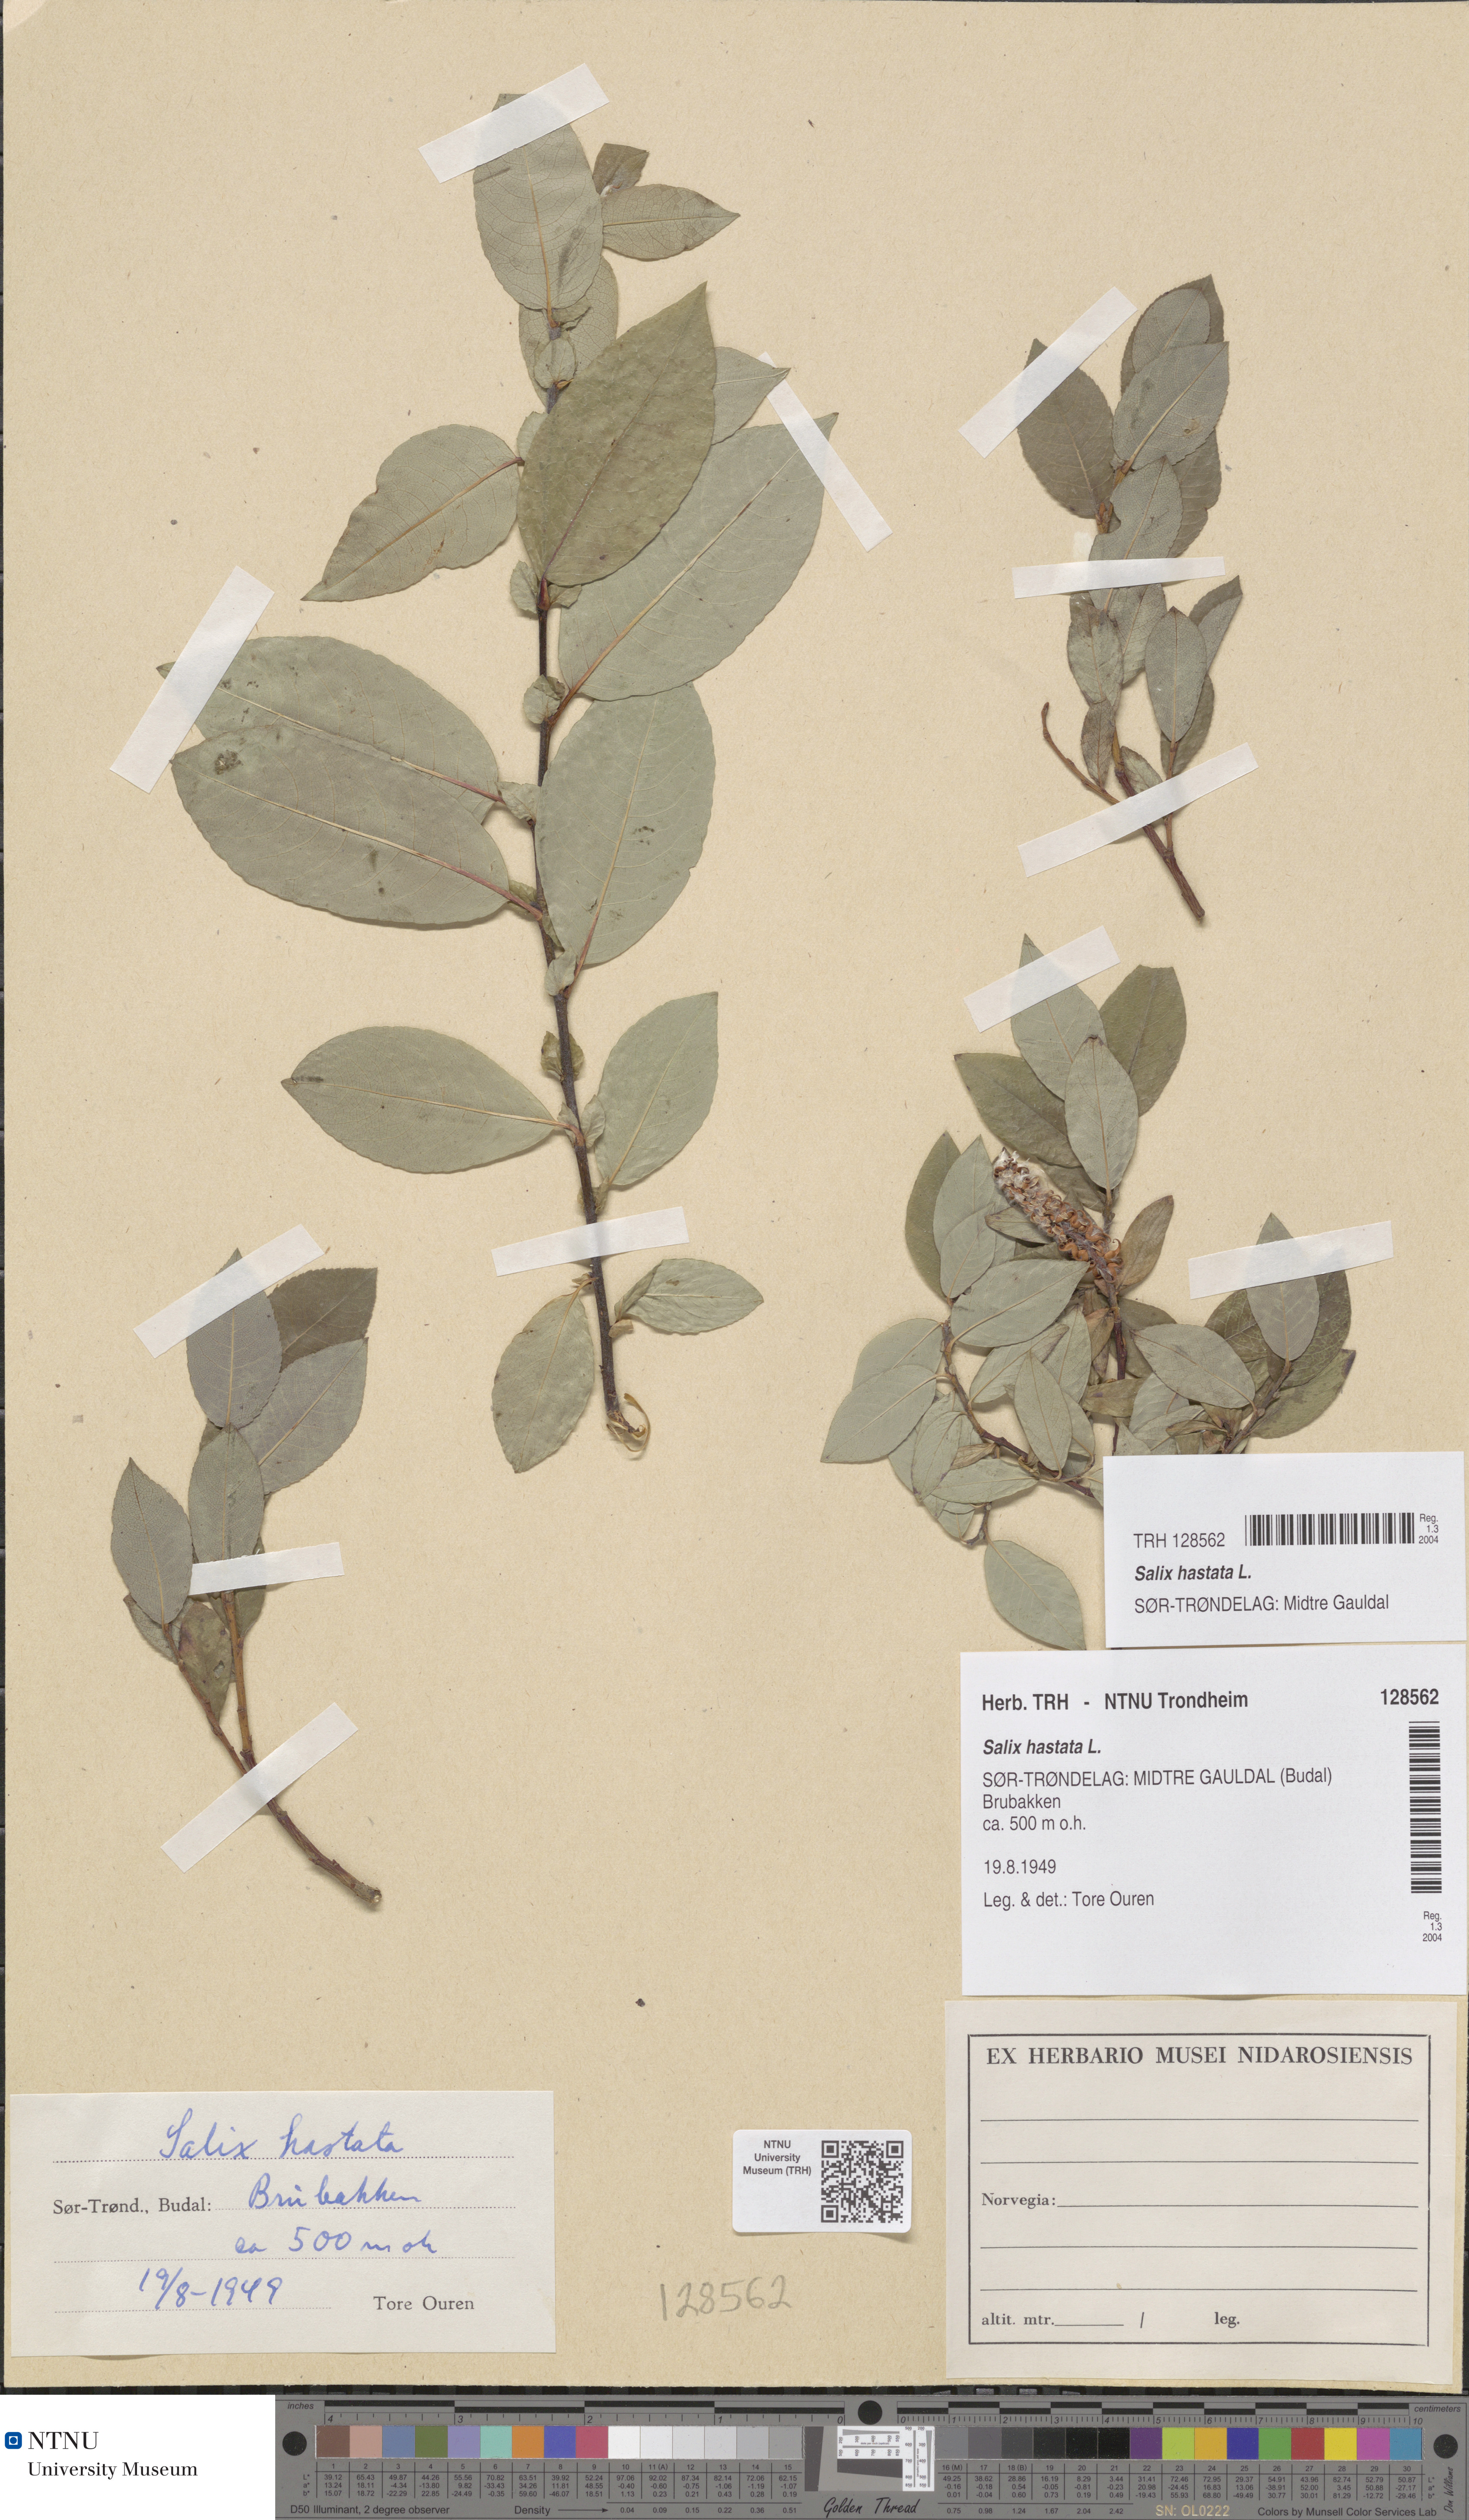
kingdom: Plantae
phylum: Tracheophyta
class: Magnoliopsida
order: Malpighiales
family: Salicaceae
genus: Salix
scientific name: Salix hastata
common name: Halberd willow
